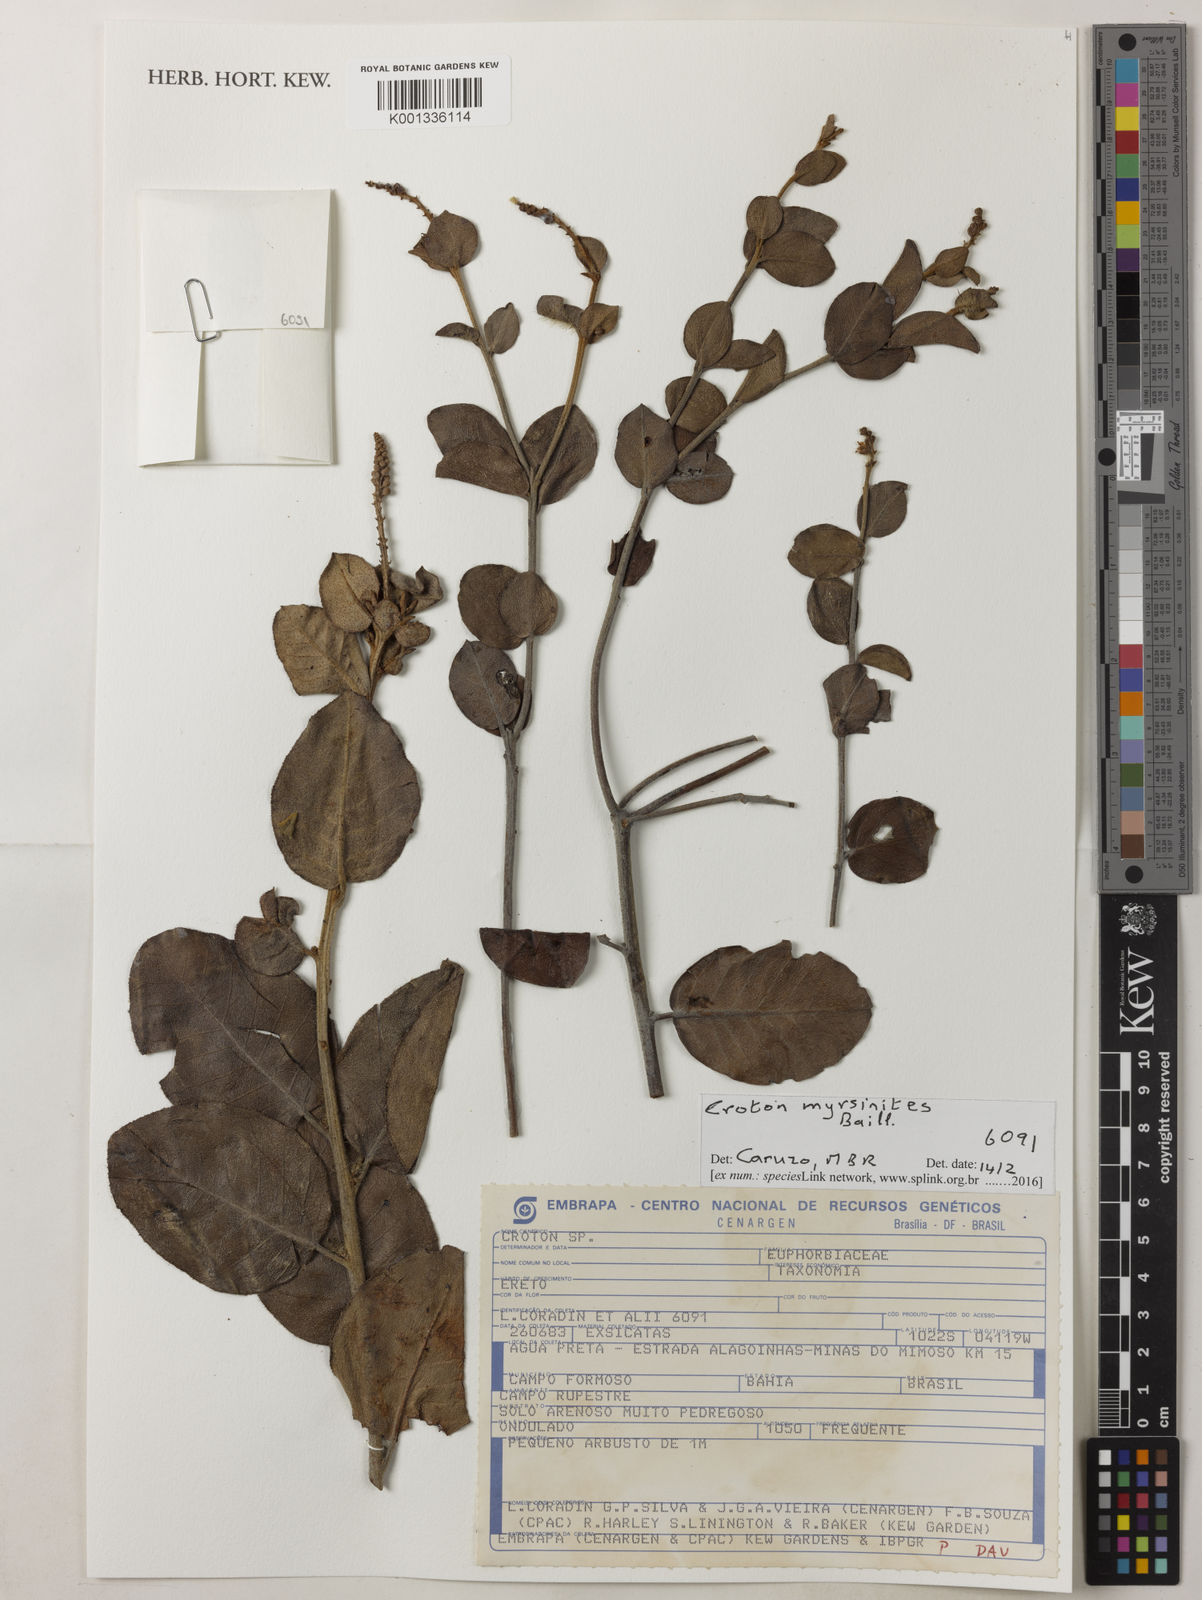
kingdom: Plantae
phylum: Tracheophyta
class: Magnoliopsida
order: Malpighiales
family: Euphorbiaceae
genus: Croton
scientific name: Croton myrsinites
